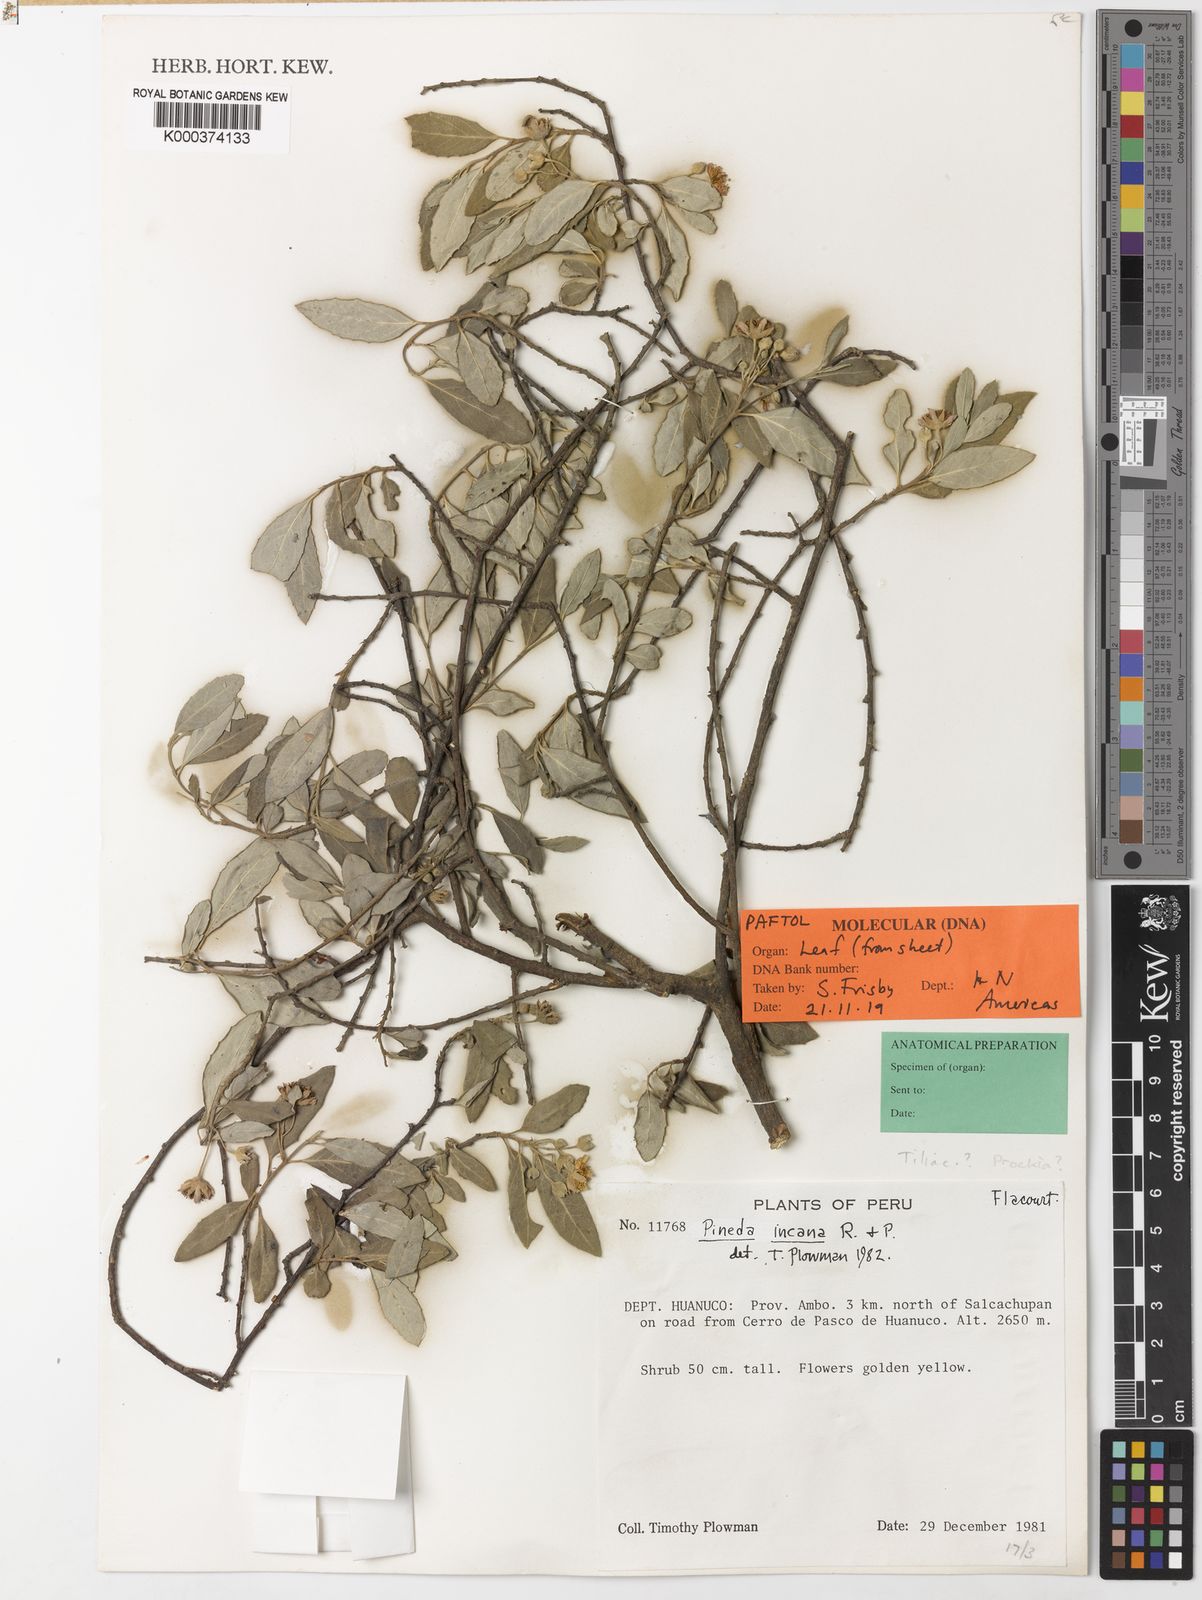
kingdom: Plantae
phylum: Tracheophyta
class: Magnoliopsida
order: Malpighiales
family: Salicaceae
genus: Pineda
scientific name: Pineda incana
